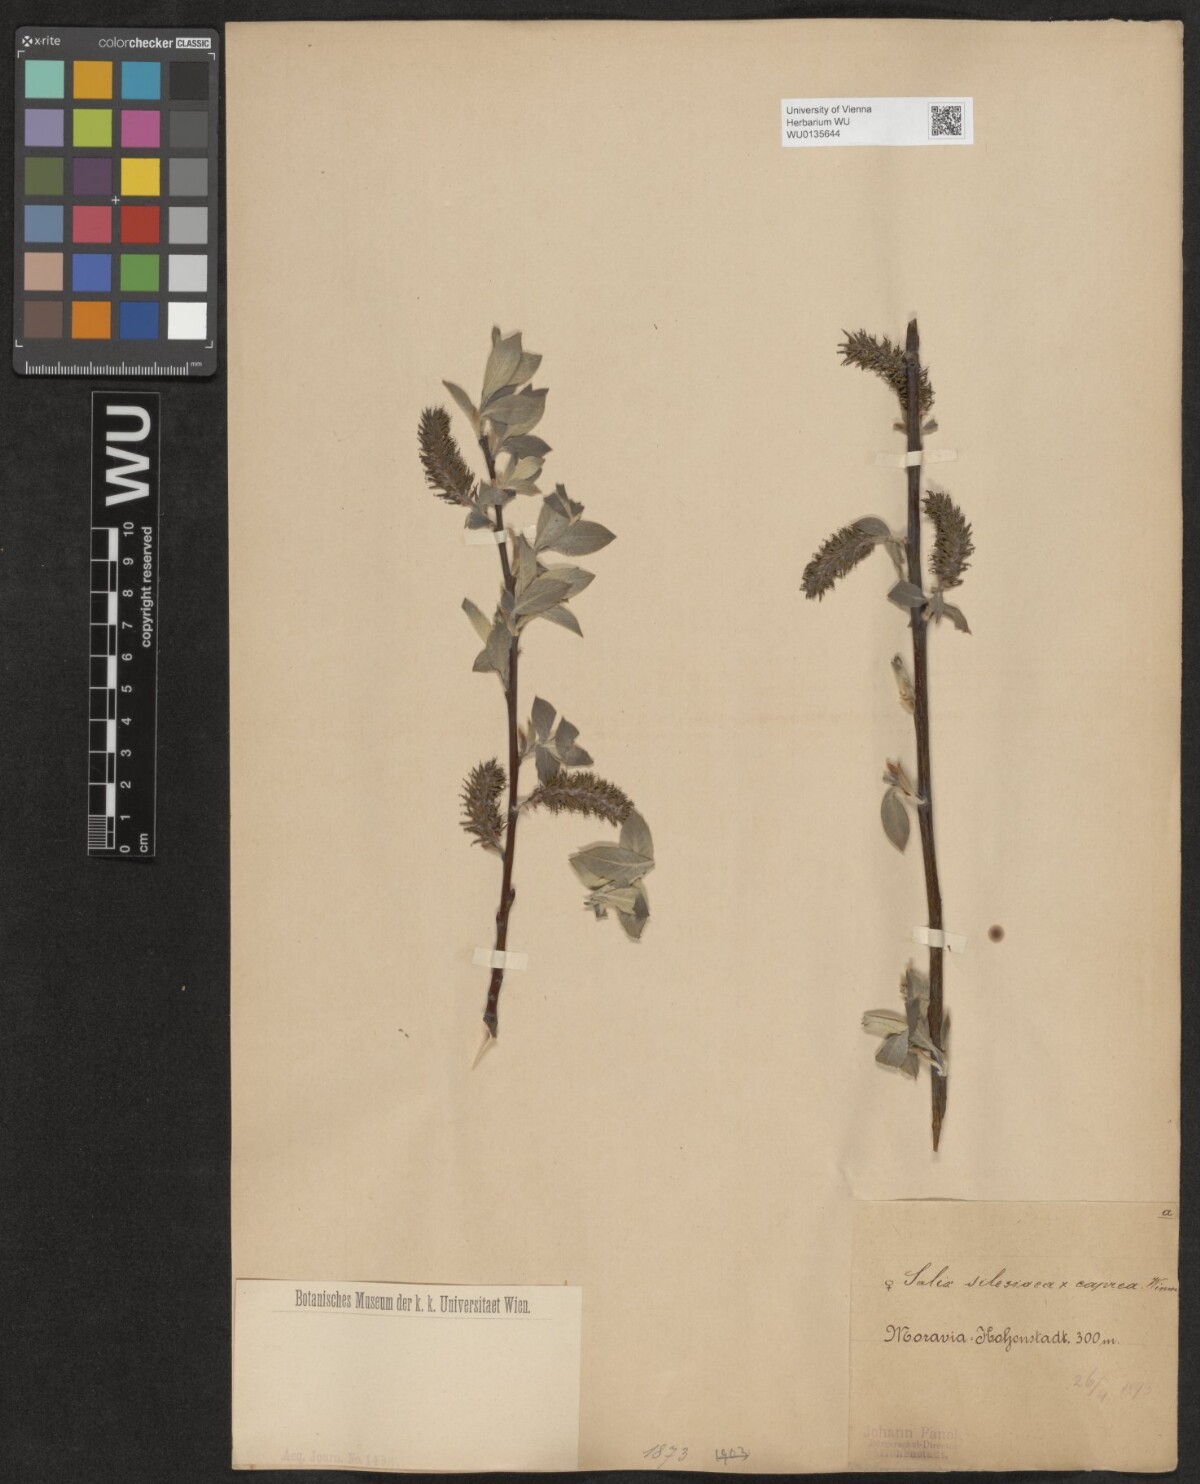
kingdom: Plantae
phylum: Tracheophyta
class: Magnoliopsida
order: Malpighiales
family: Salicaceae
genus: Salix
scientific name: Salix
